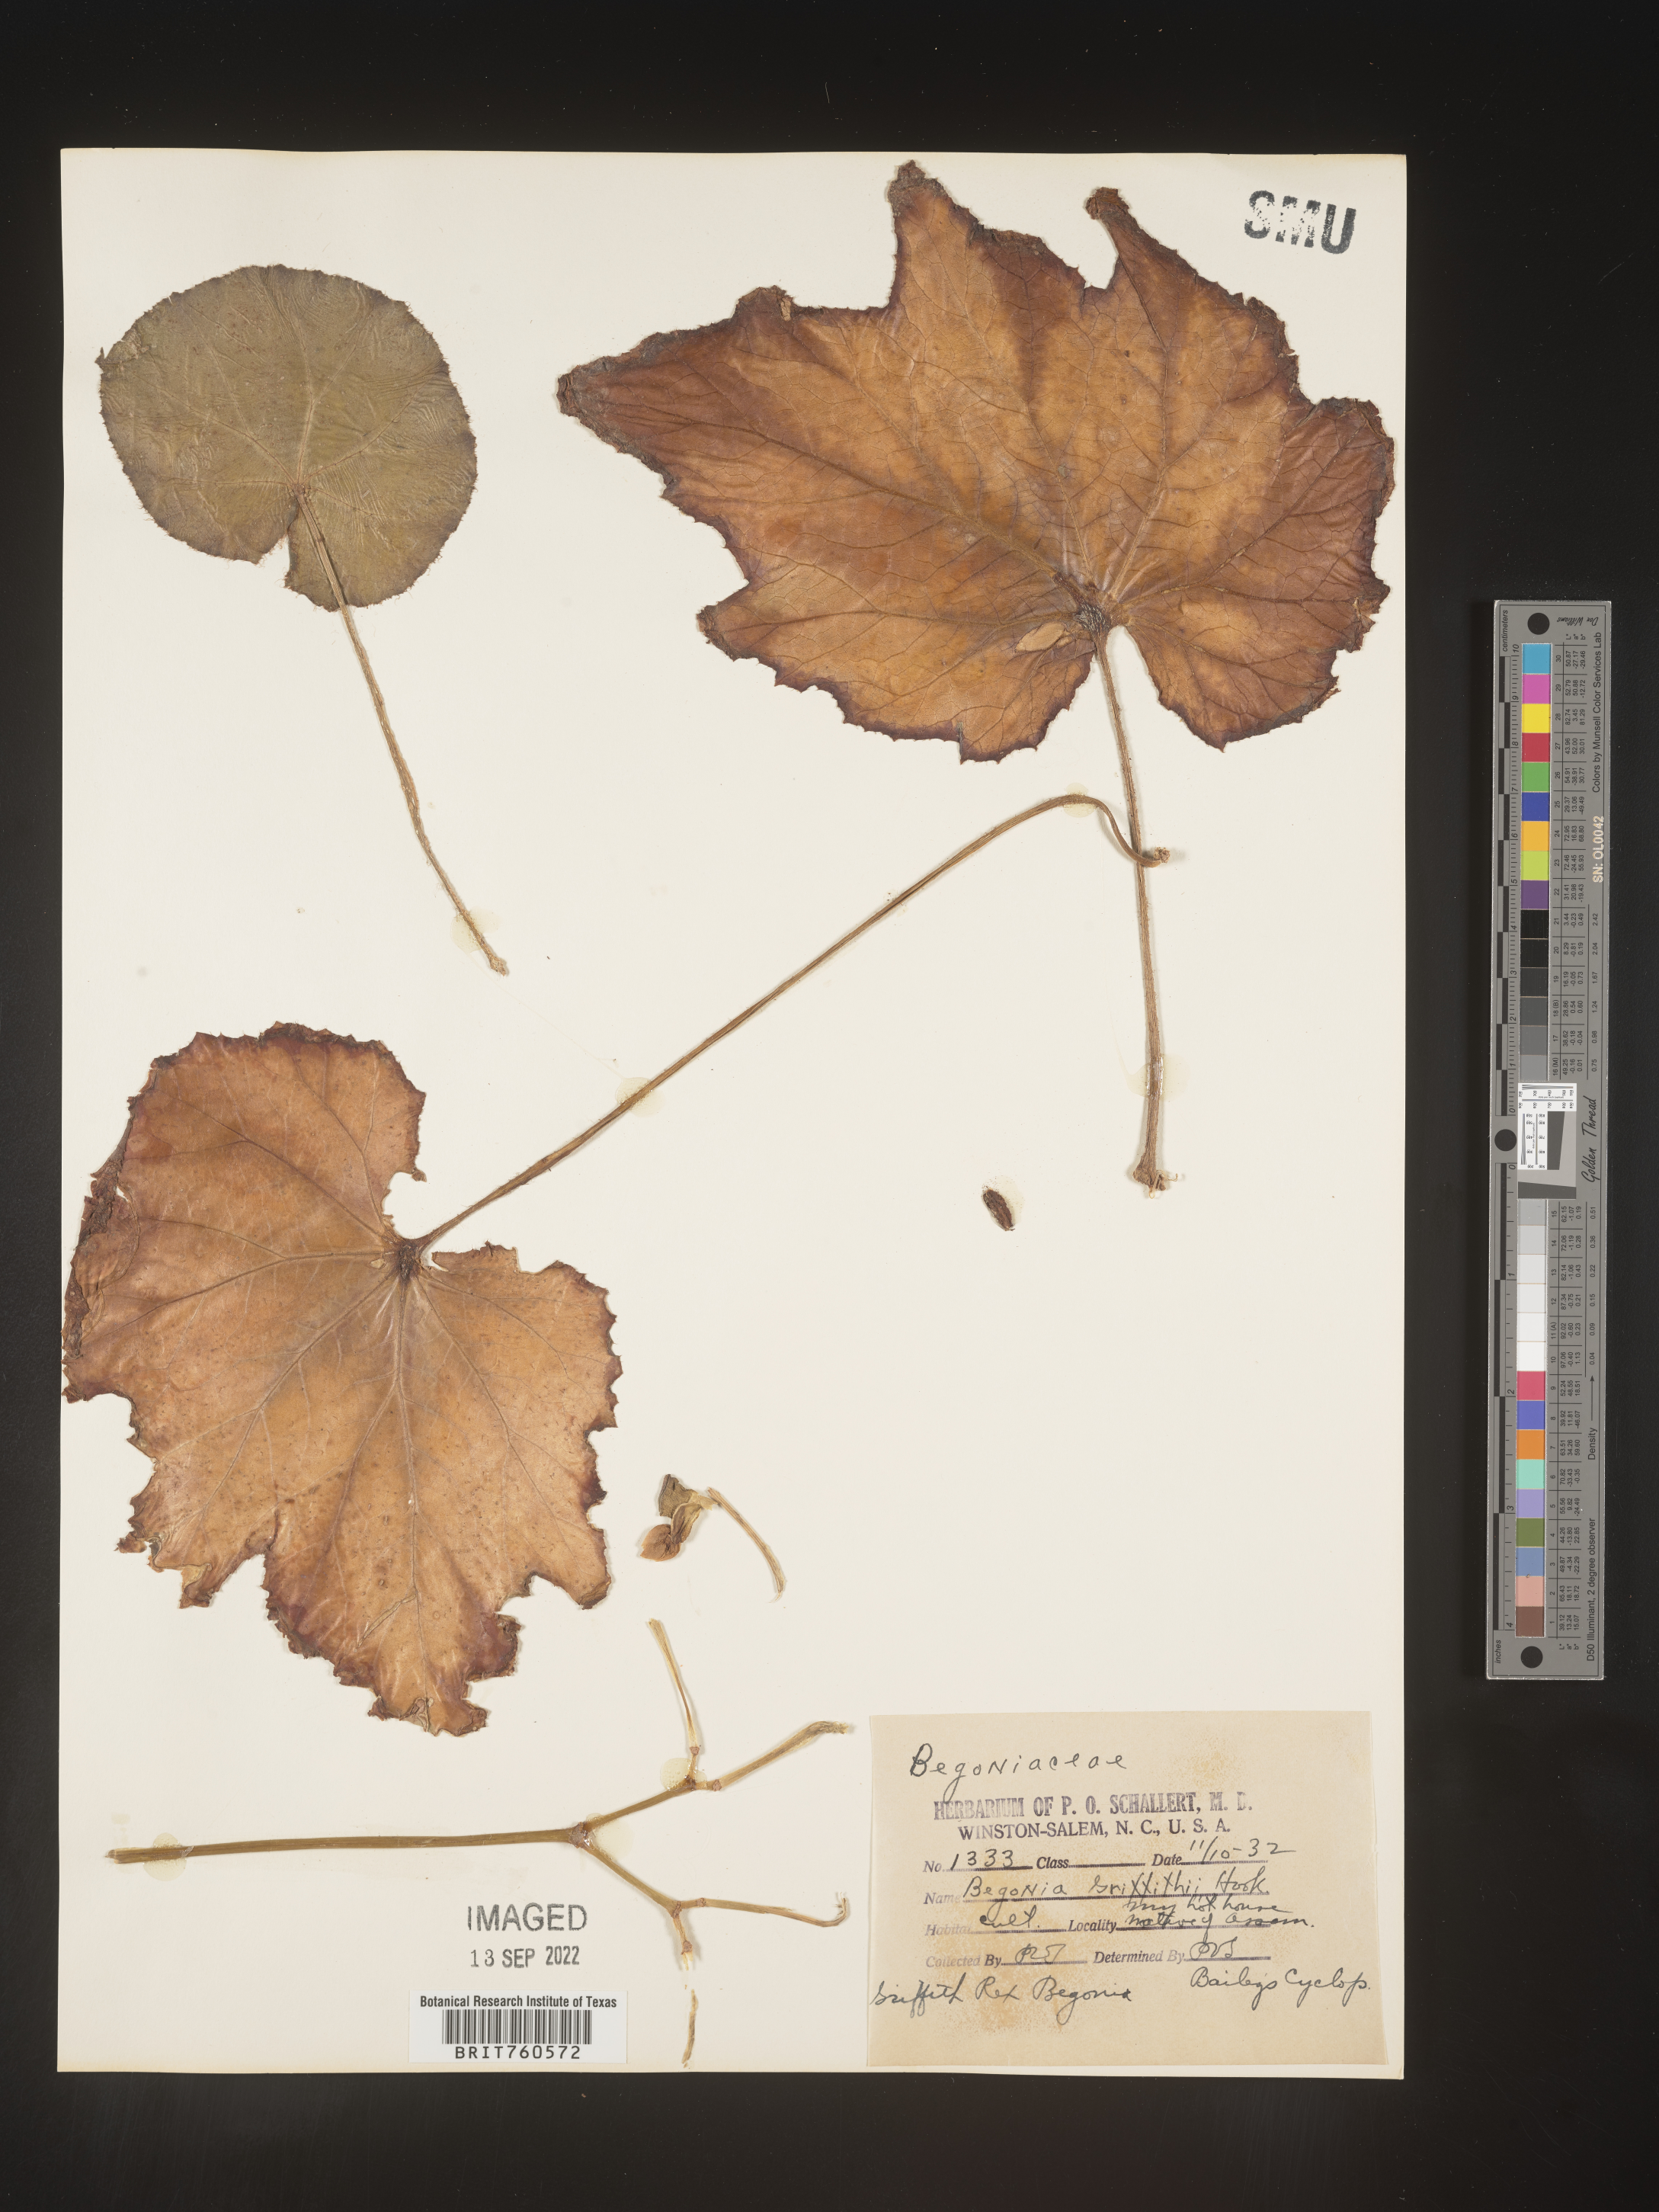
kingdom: Plantae
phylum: Tracheophyta
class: Magnoliopsida
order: Cucurbitales
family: Begoniaceae
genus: Begonia
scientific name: Begonia
